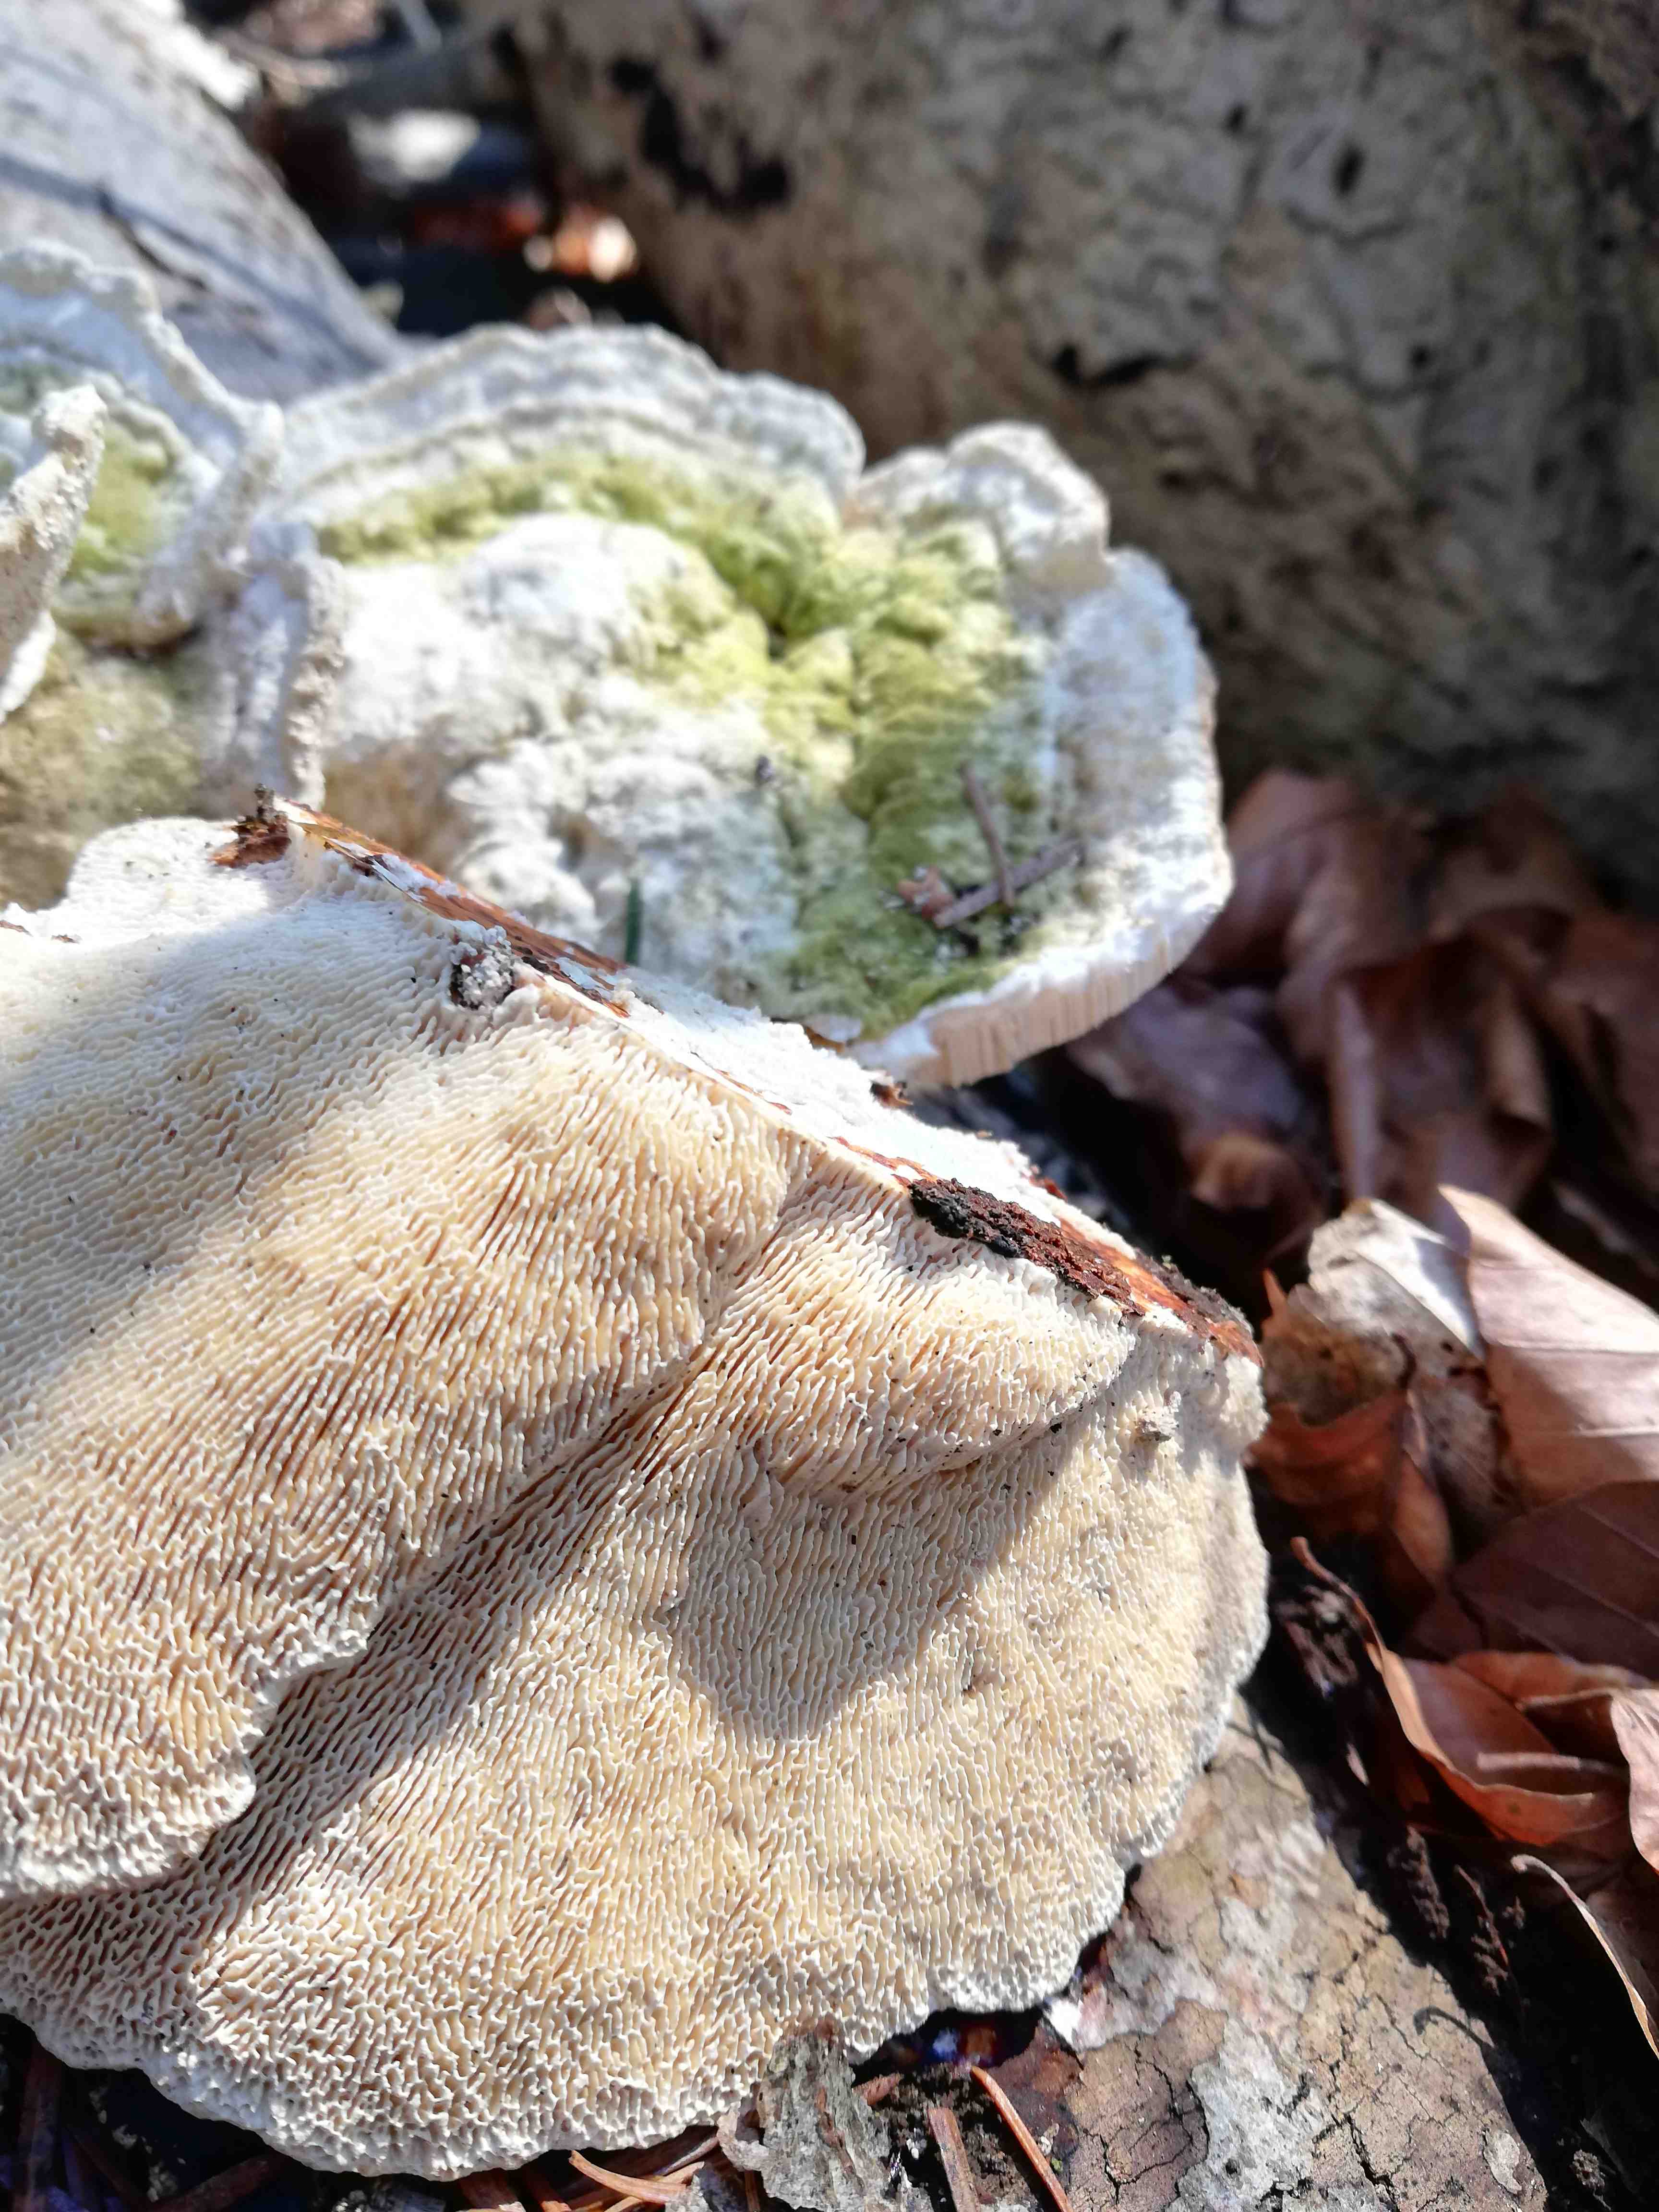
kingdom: Fungi
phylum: Basidiomycota
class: Agaricomycetes
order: Polyporales
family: Polyporaceae
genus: Trametes
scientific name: Trametes gibbosa
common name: puklet læderporesvamp
